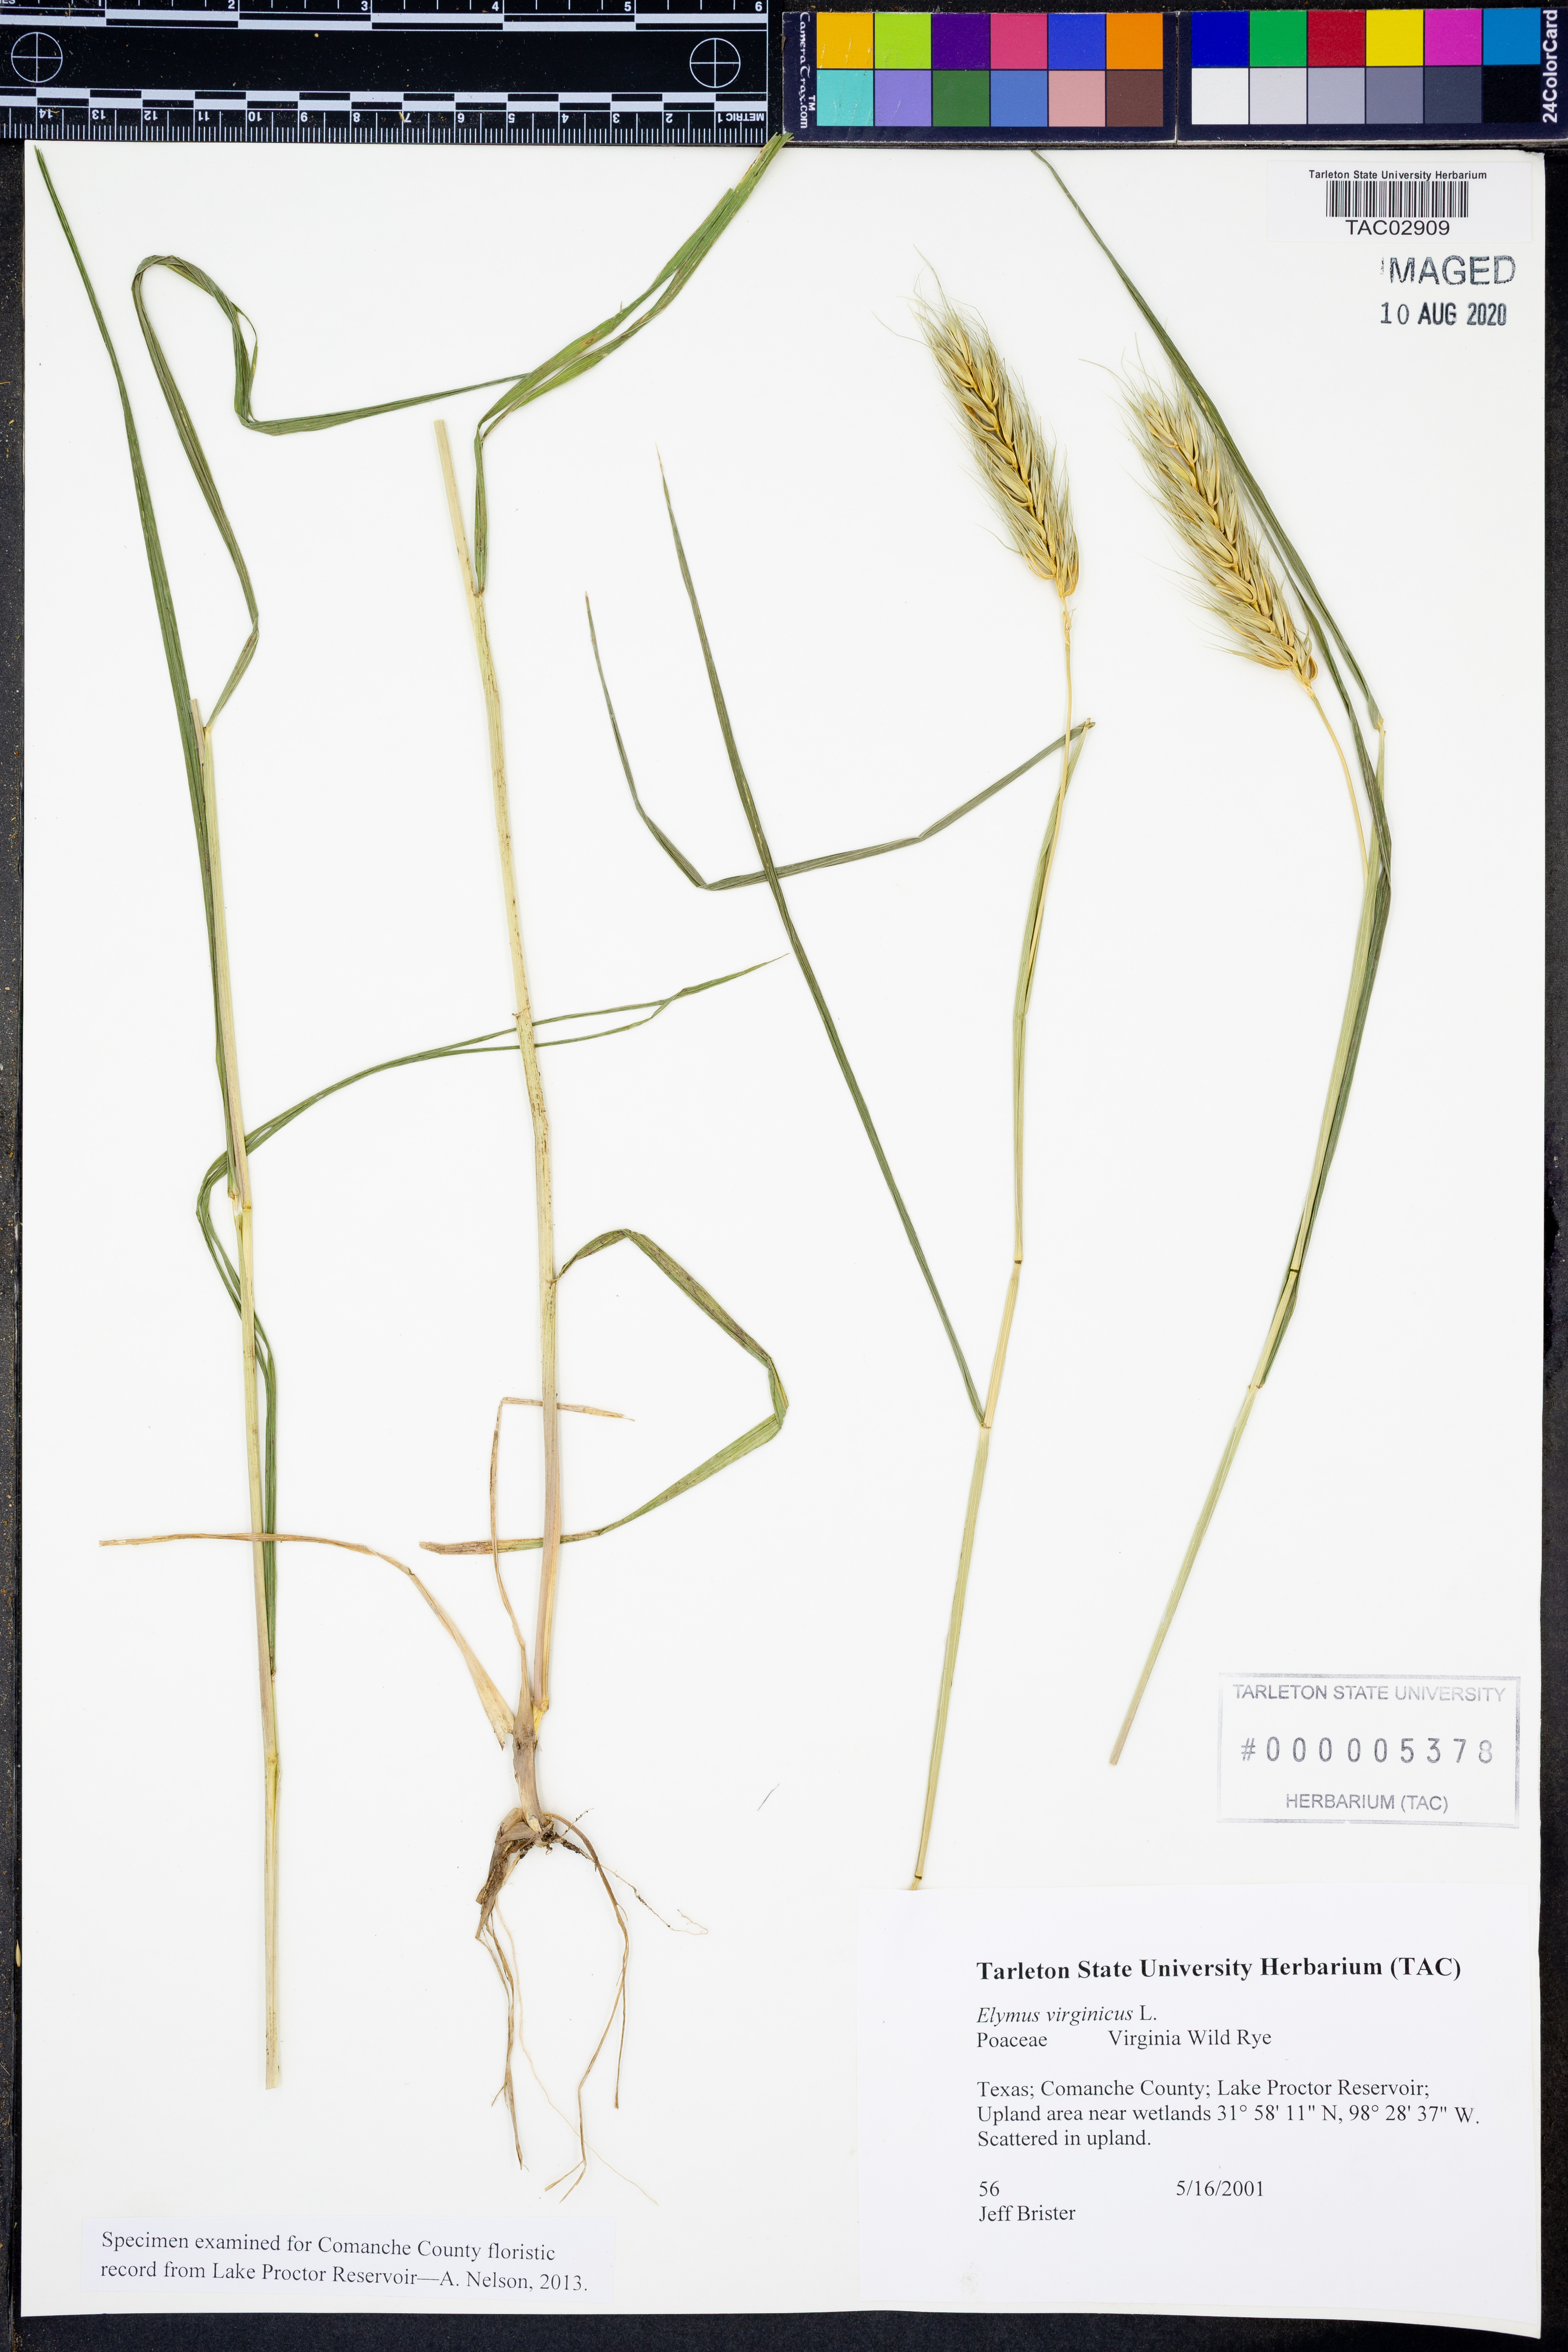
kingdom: Plantae
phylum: Tracheophyta
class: Liliopsida
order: Poales
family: Poaceae
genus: Elymus
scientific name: Elymus virginicus
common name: Common eastern wildrye
